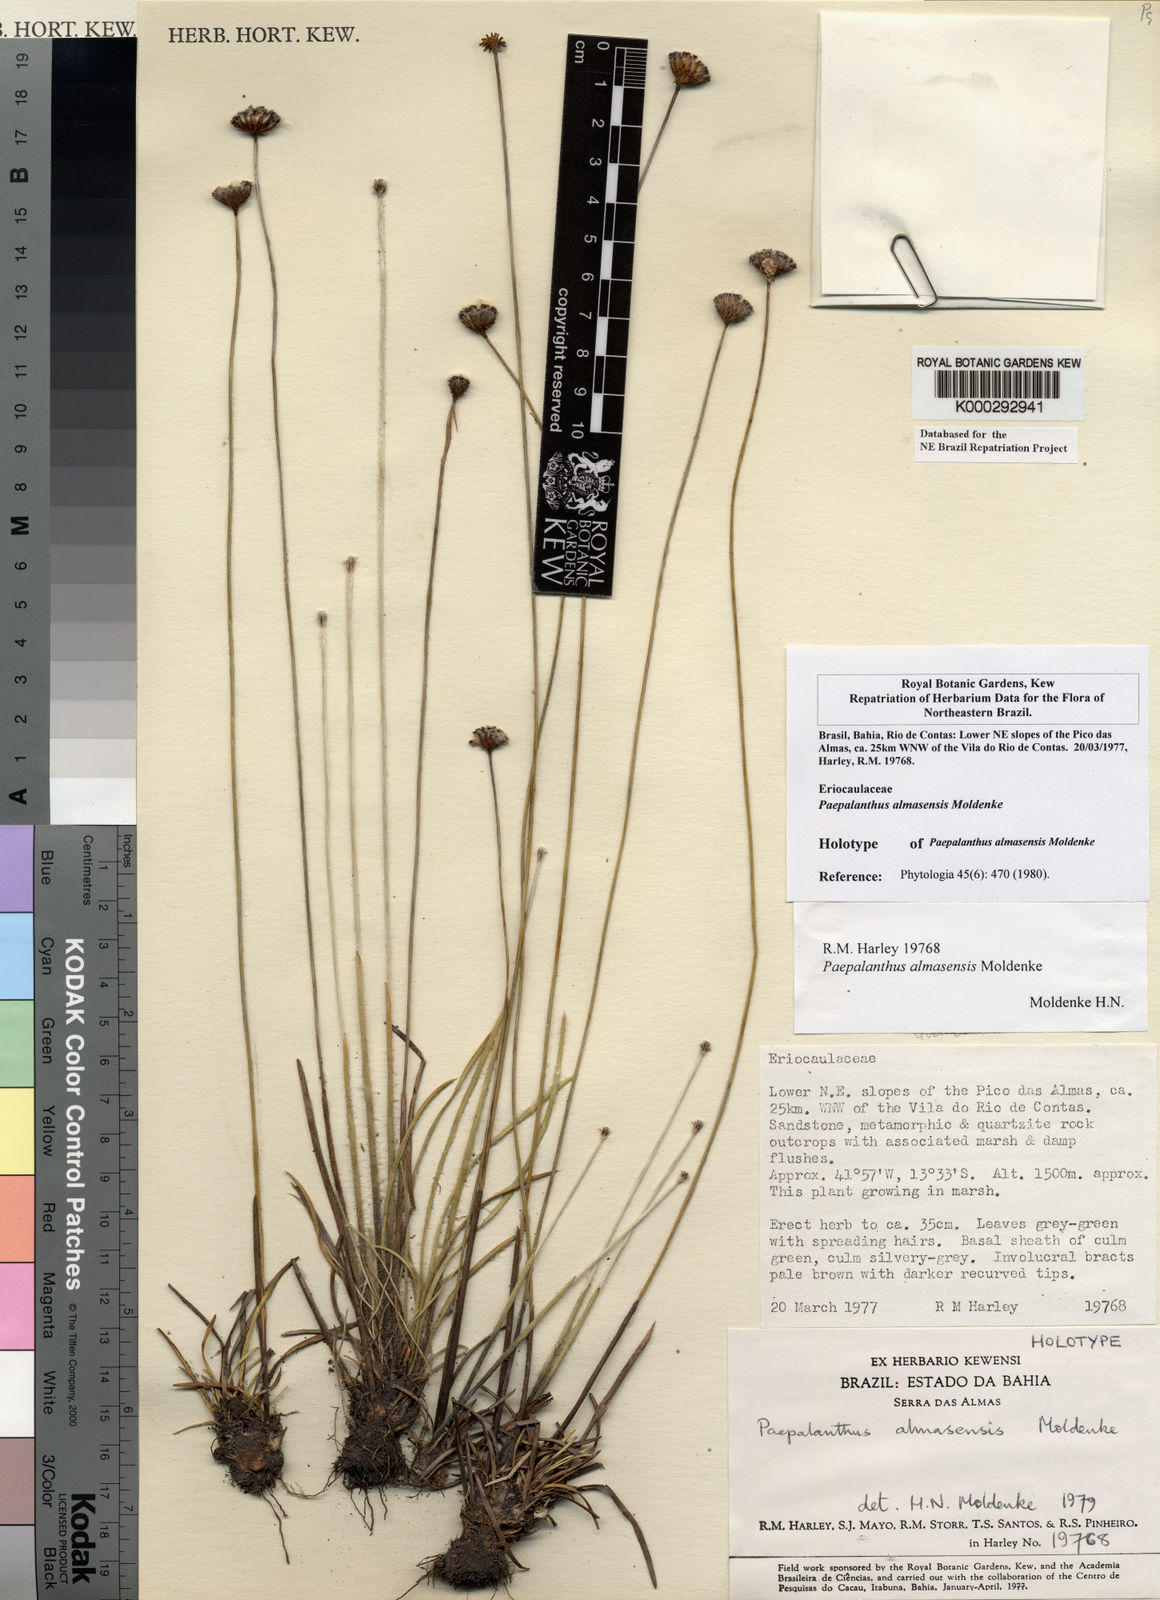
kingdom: Plantae
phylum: Tracheophyta
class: Liliopsida
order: Poales
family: Eriocaulaceae
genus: Paepalanthus
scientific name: Paepalanthus almasensis
